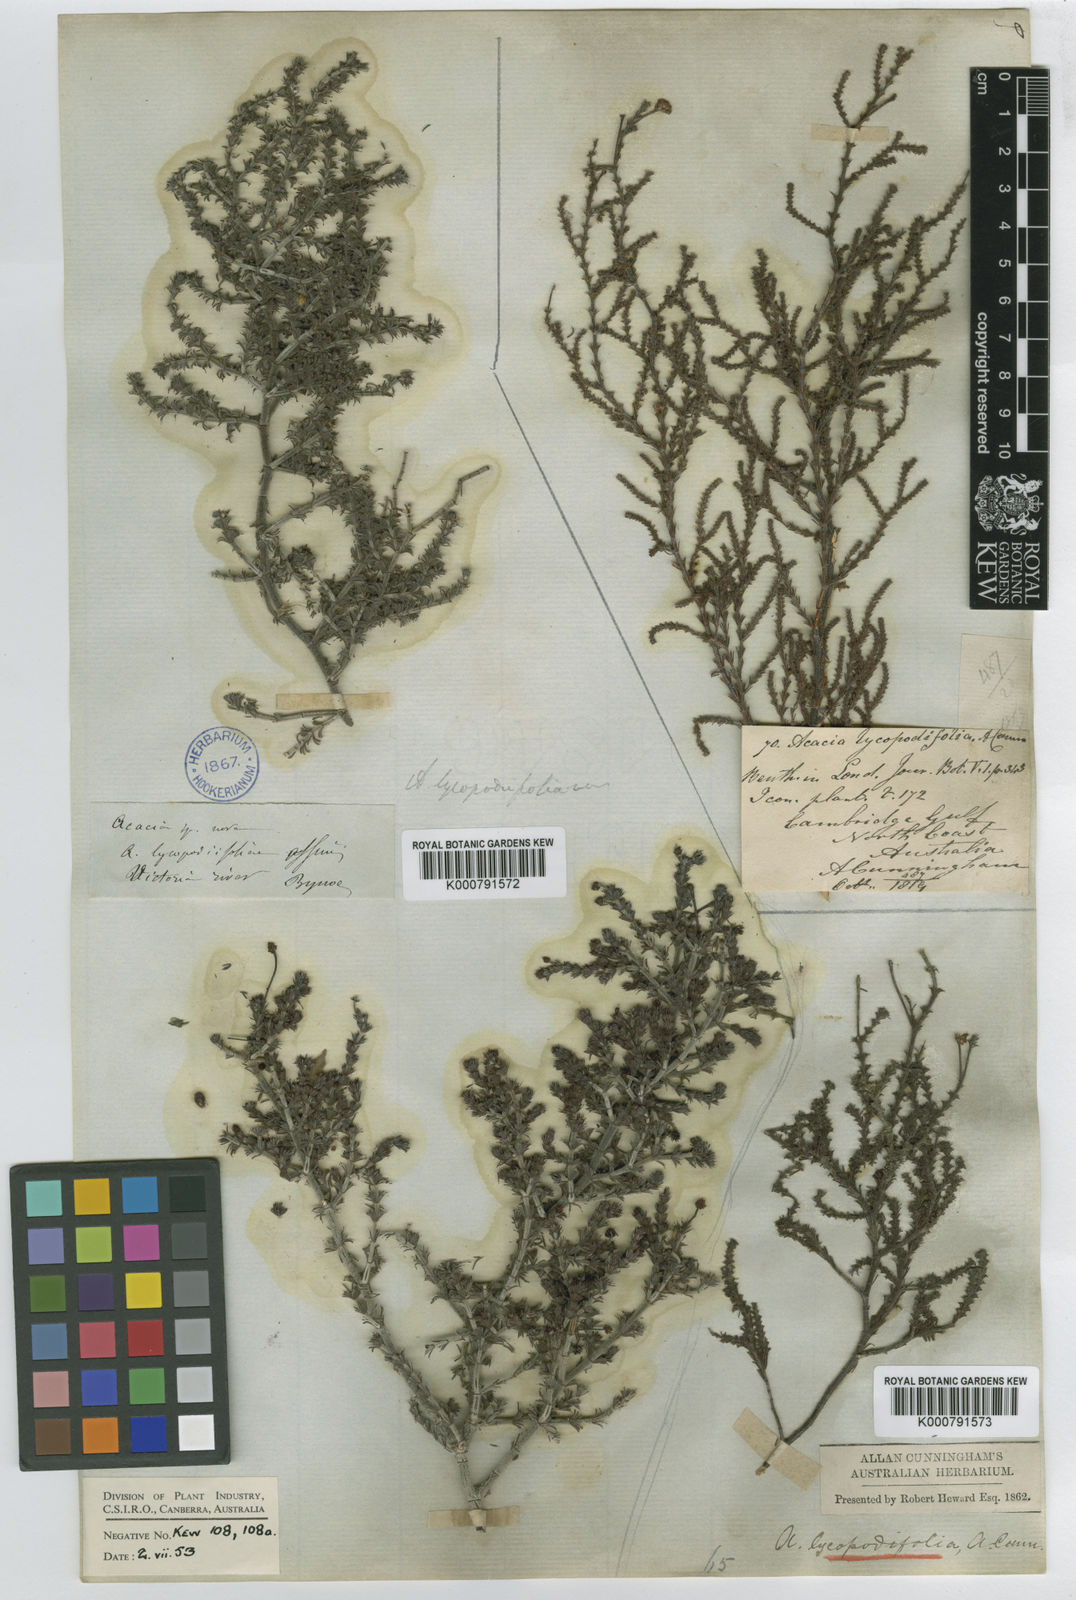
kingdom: Plantae
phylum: Tracheophyta
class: Magnoliopsida
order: Fabales
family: Fabaceae
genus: Acacia
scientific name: Acacia lycopodiifolia
